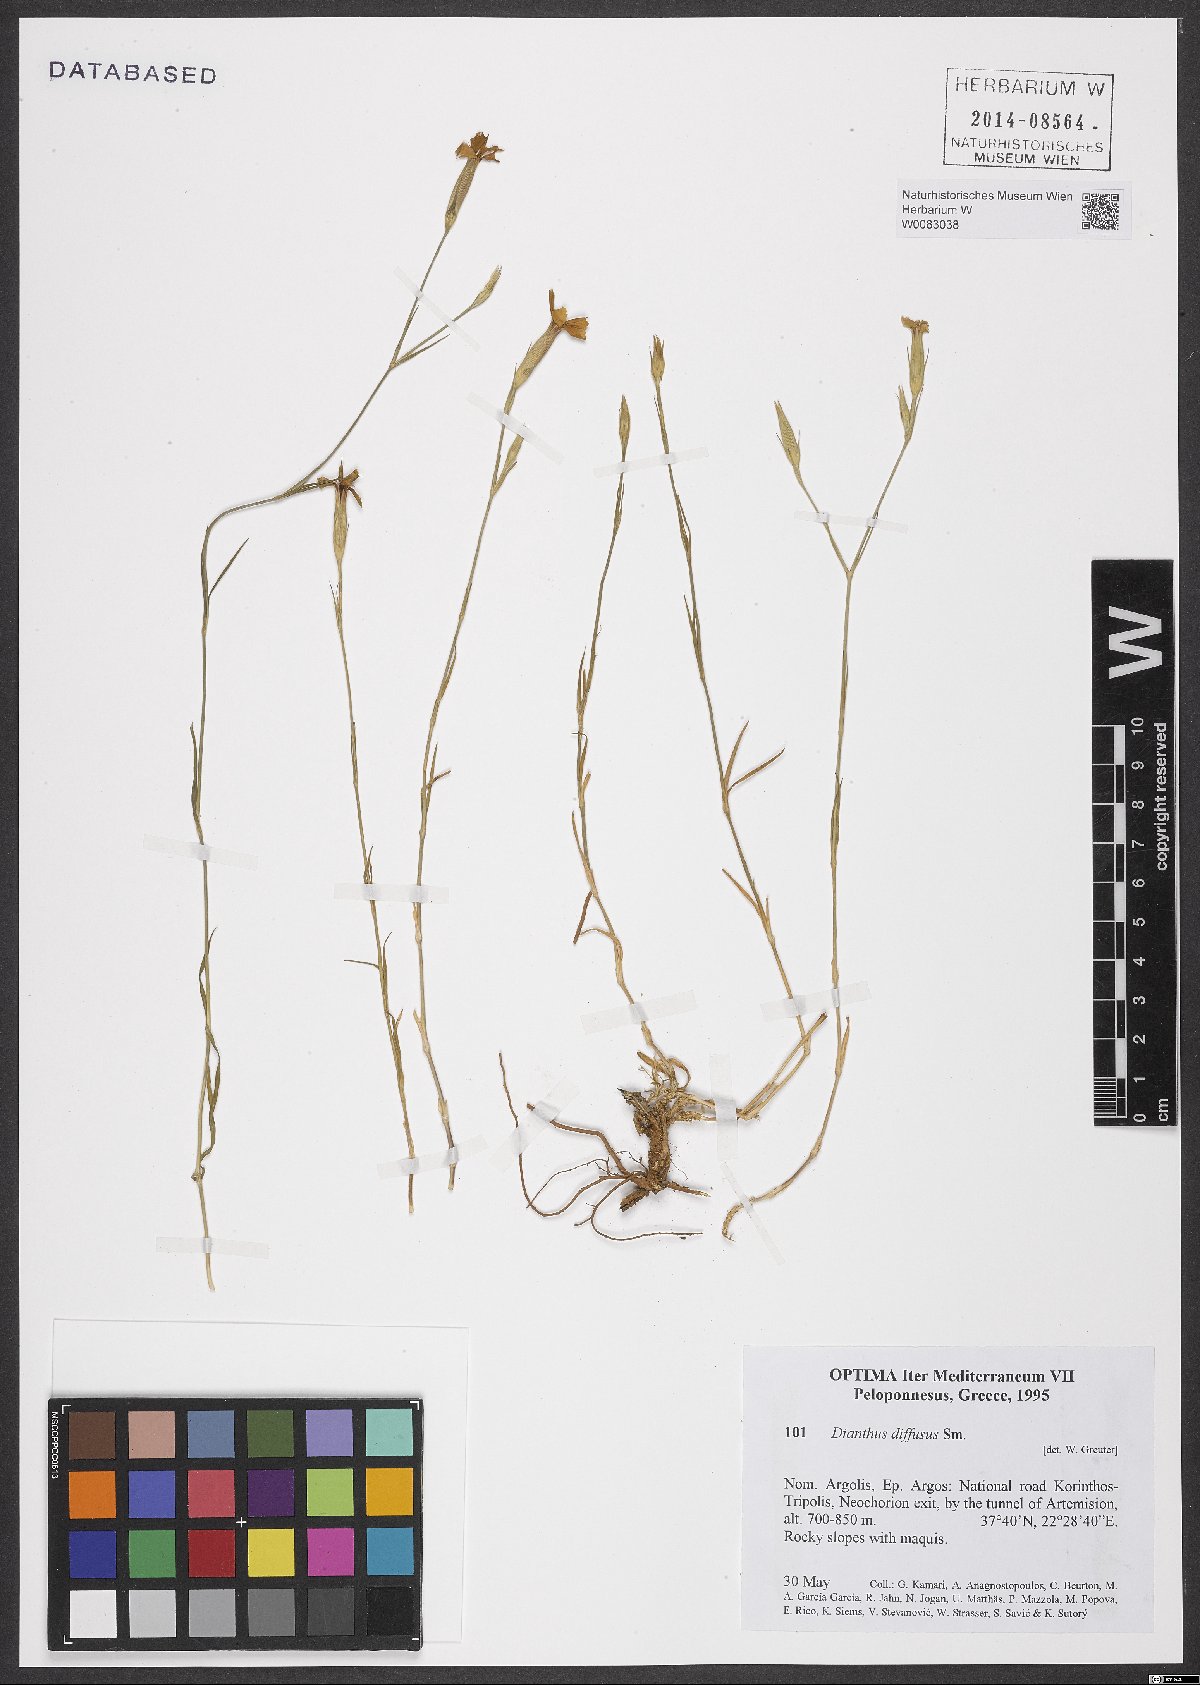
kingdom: Plantae
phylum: Tracheophyta
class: Magnoliopsida
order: Caryophyllales
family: Caryophyllaceae
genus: Dianthus
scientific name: Dianthus diffusus
